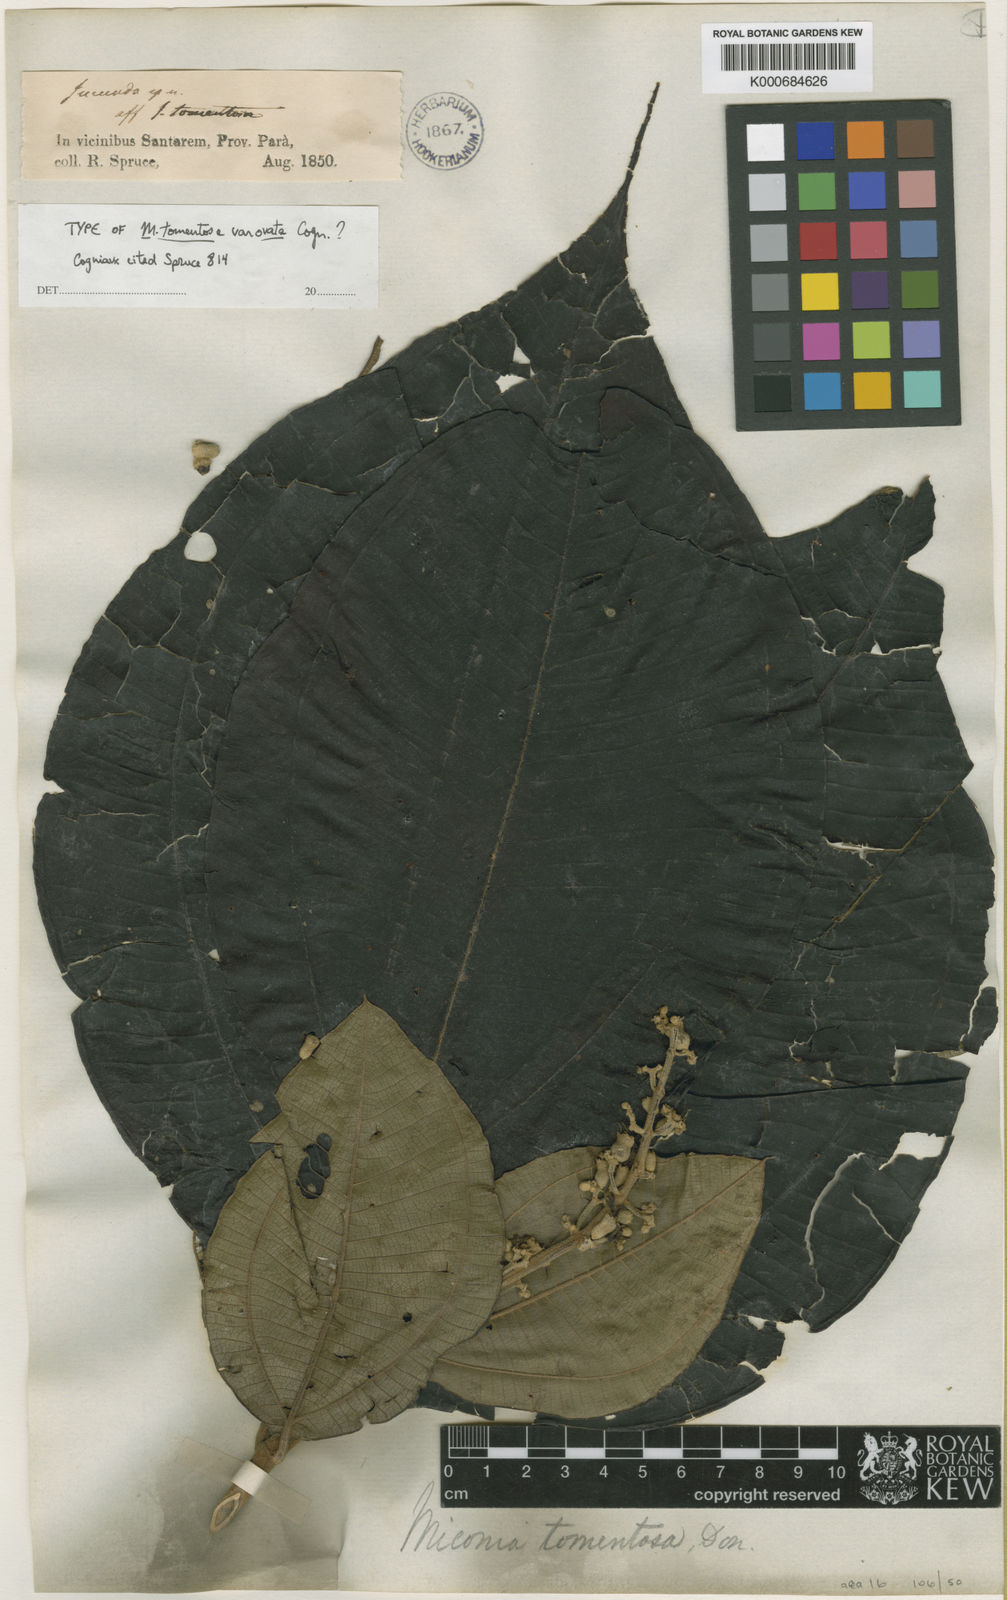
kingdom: Plantae
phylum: Tracheophyta
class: Magnoliopsida
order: Myrtales
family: Melastomataceae
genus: Miconia
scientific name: Miconia tomentosa
